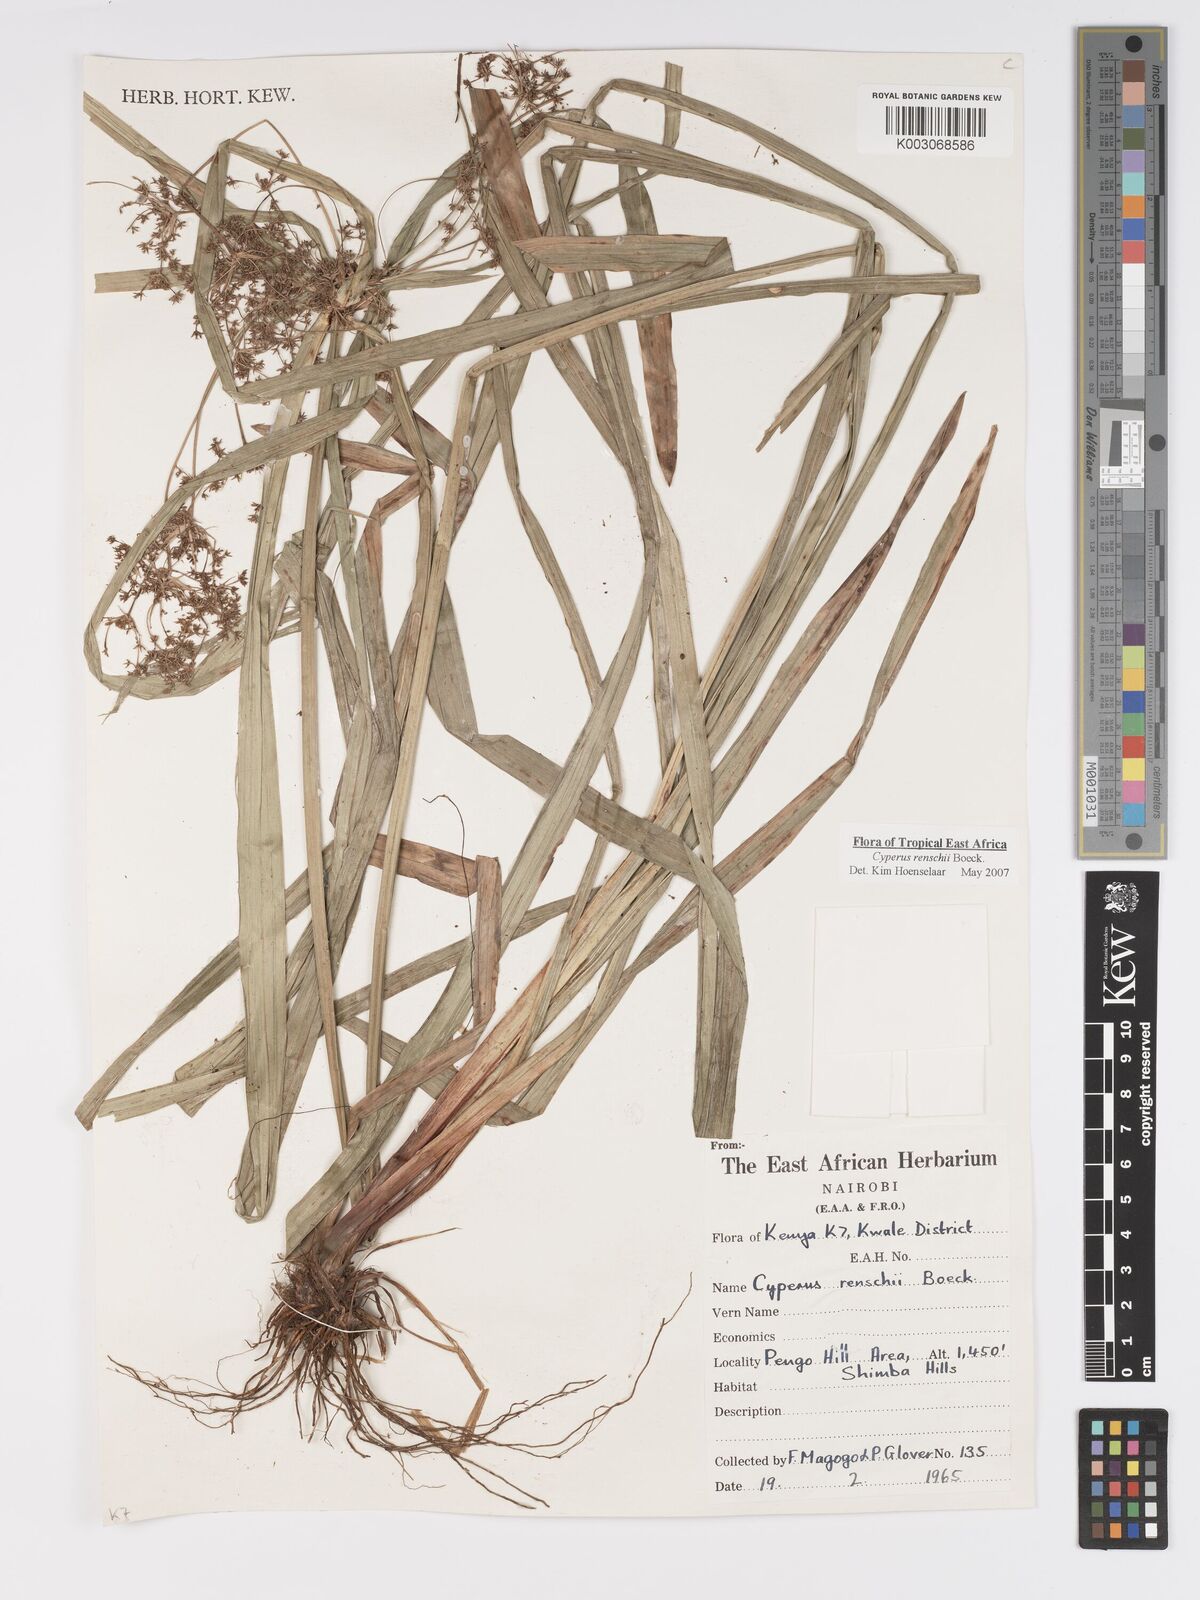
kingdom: Plantae
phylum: Tracheophyta
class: Liliopsida
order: Poales
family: Cyperaceae
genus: Cyperus
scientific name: Cyperus renschii
